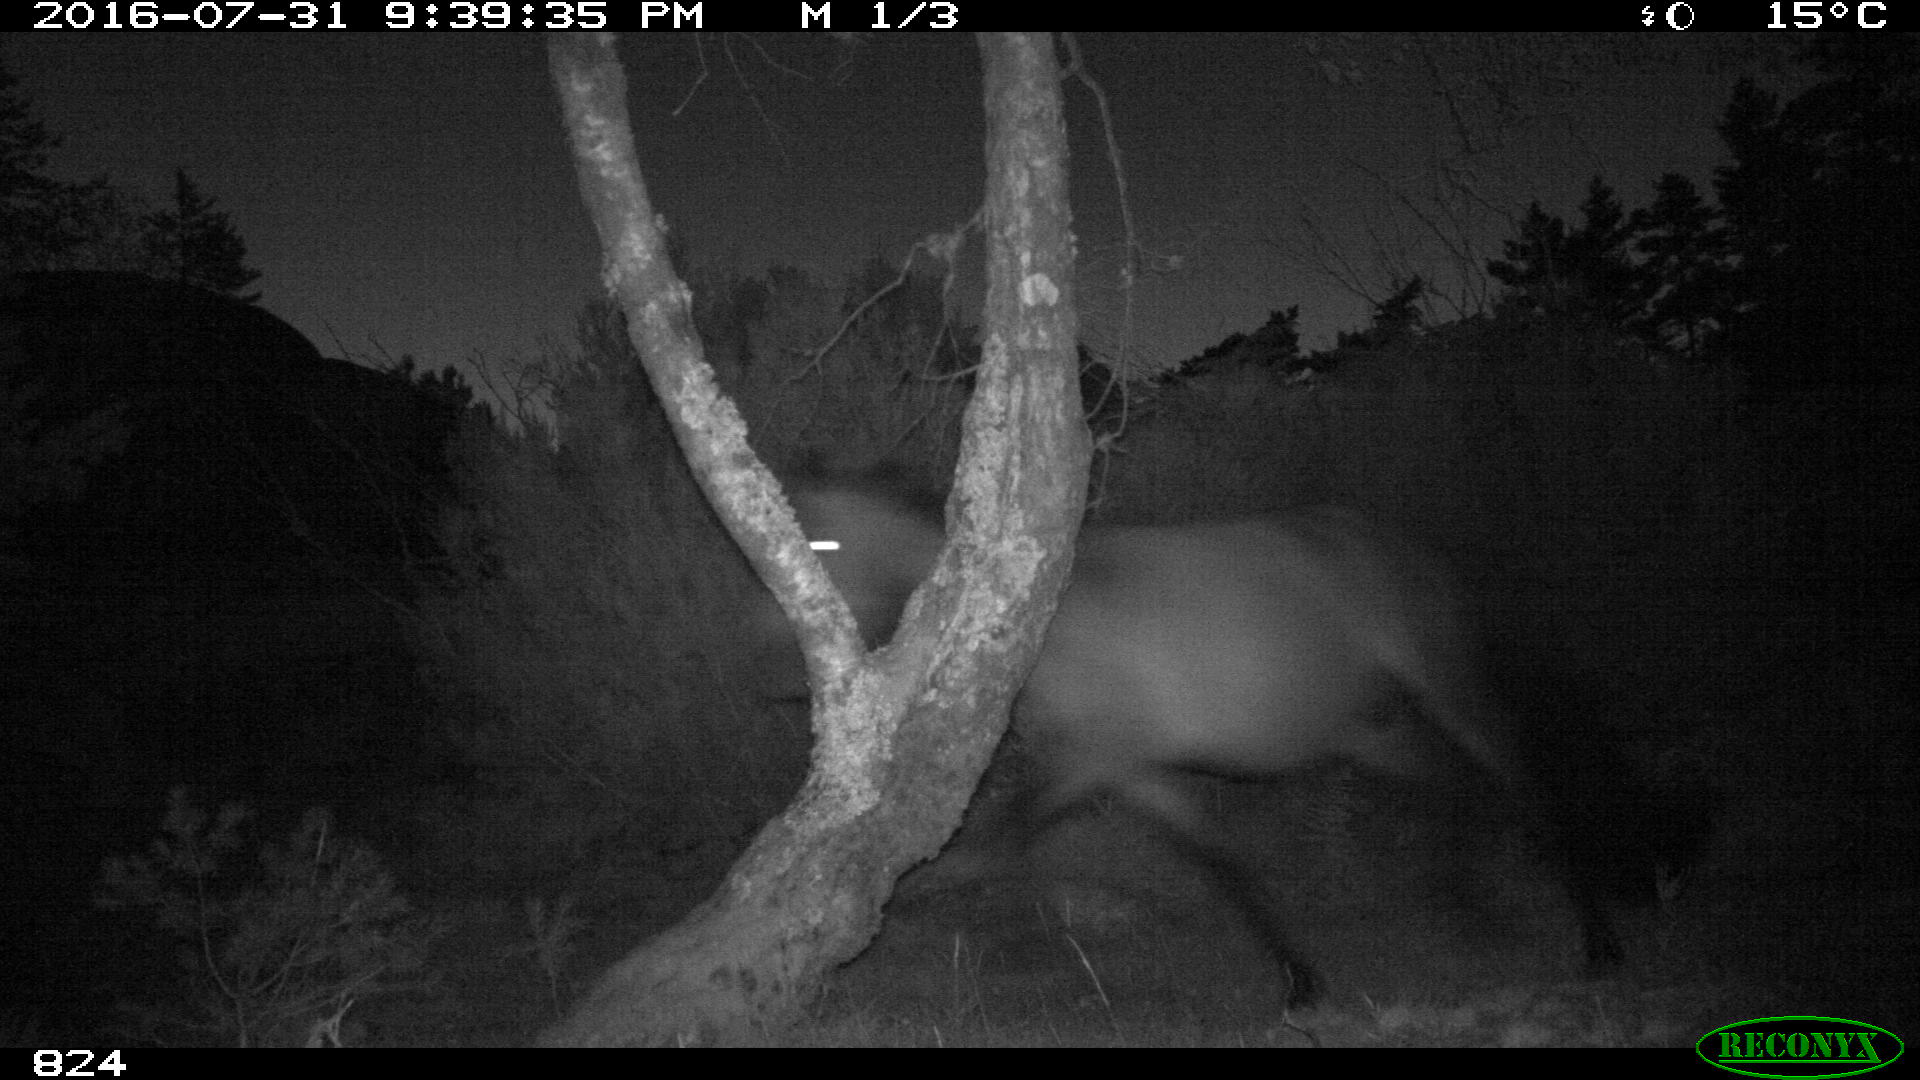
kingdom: Animalia
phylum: Chordata
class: Mammalia
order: Perissodactyla
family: Equidae
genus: Equus
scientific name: Equus caballus
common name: Horse
